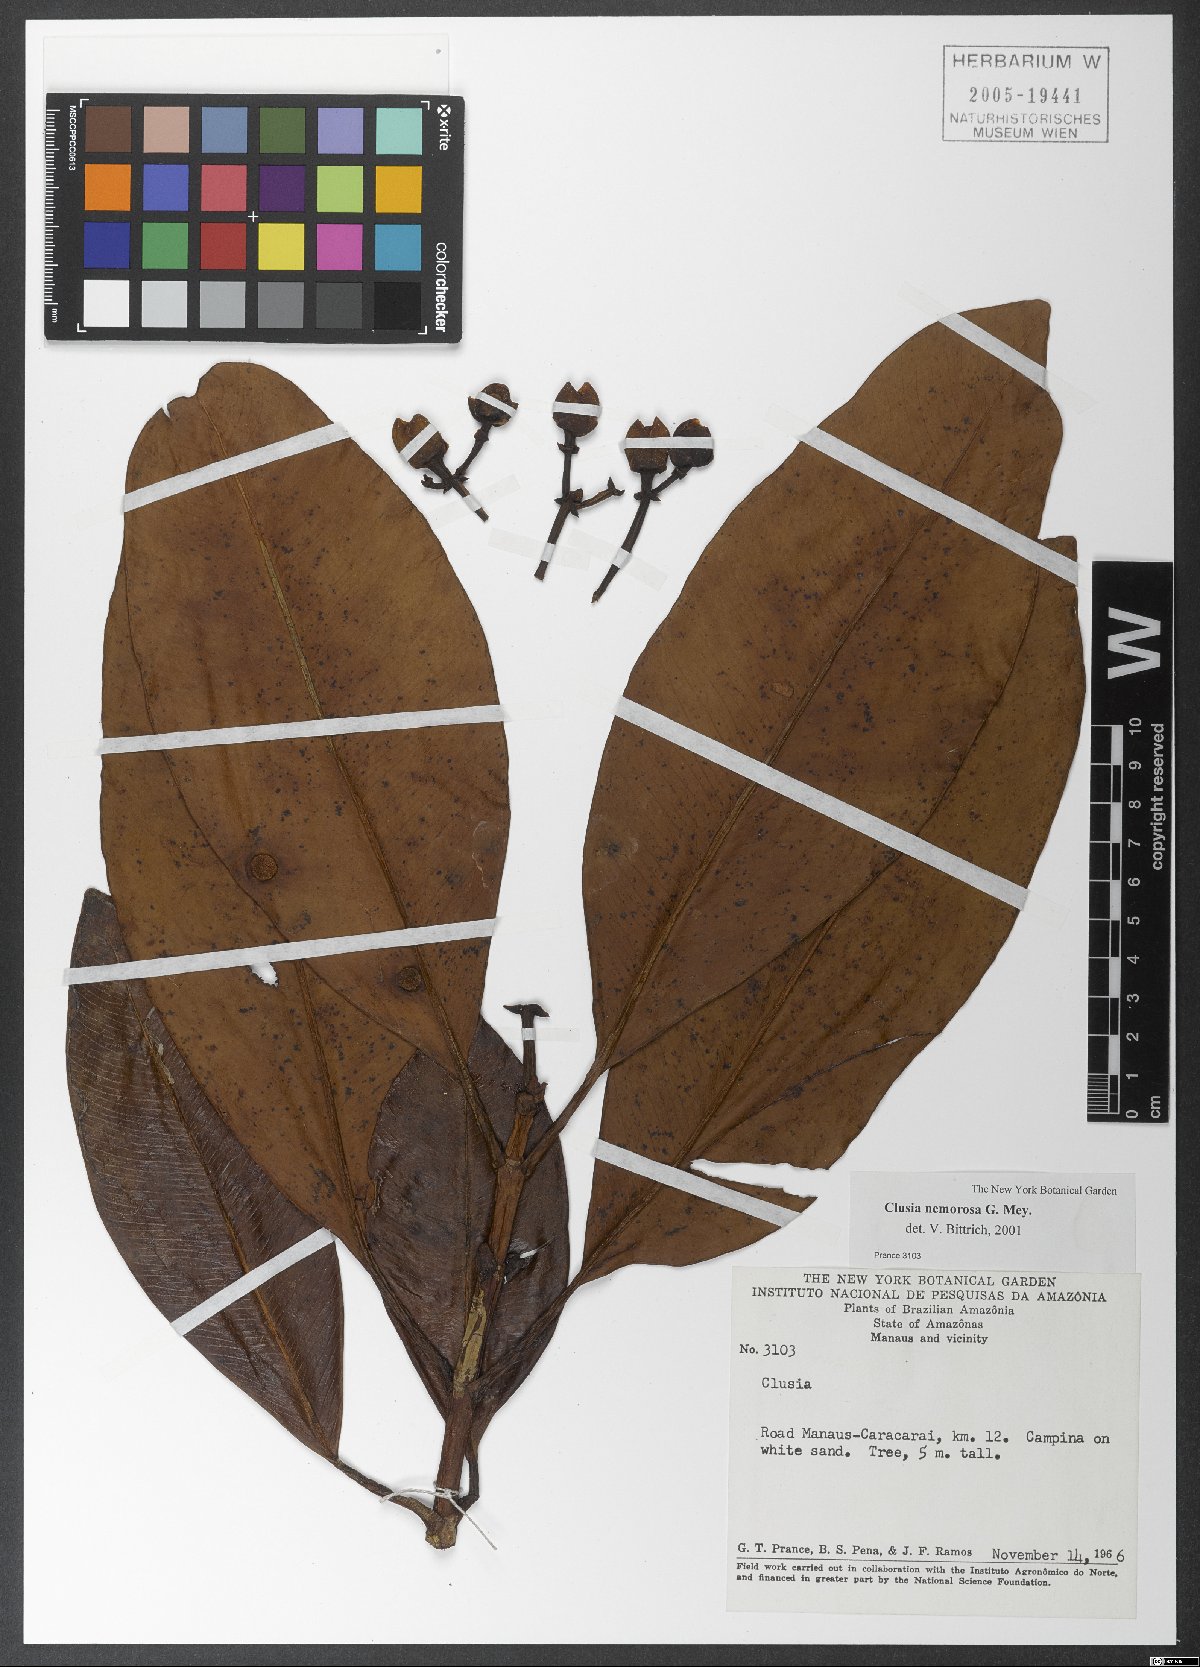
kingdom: Plantae
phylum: Tracheophyta
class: Magnoliopsida
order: Malpighiales
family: Clusiaceae
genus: Clusia
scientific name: Clusia nemorosa
